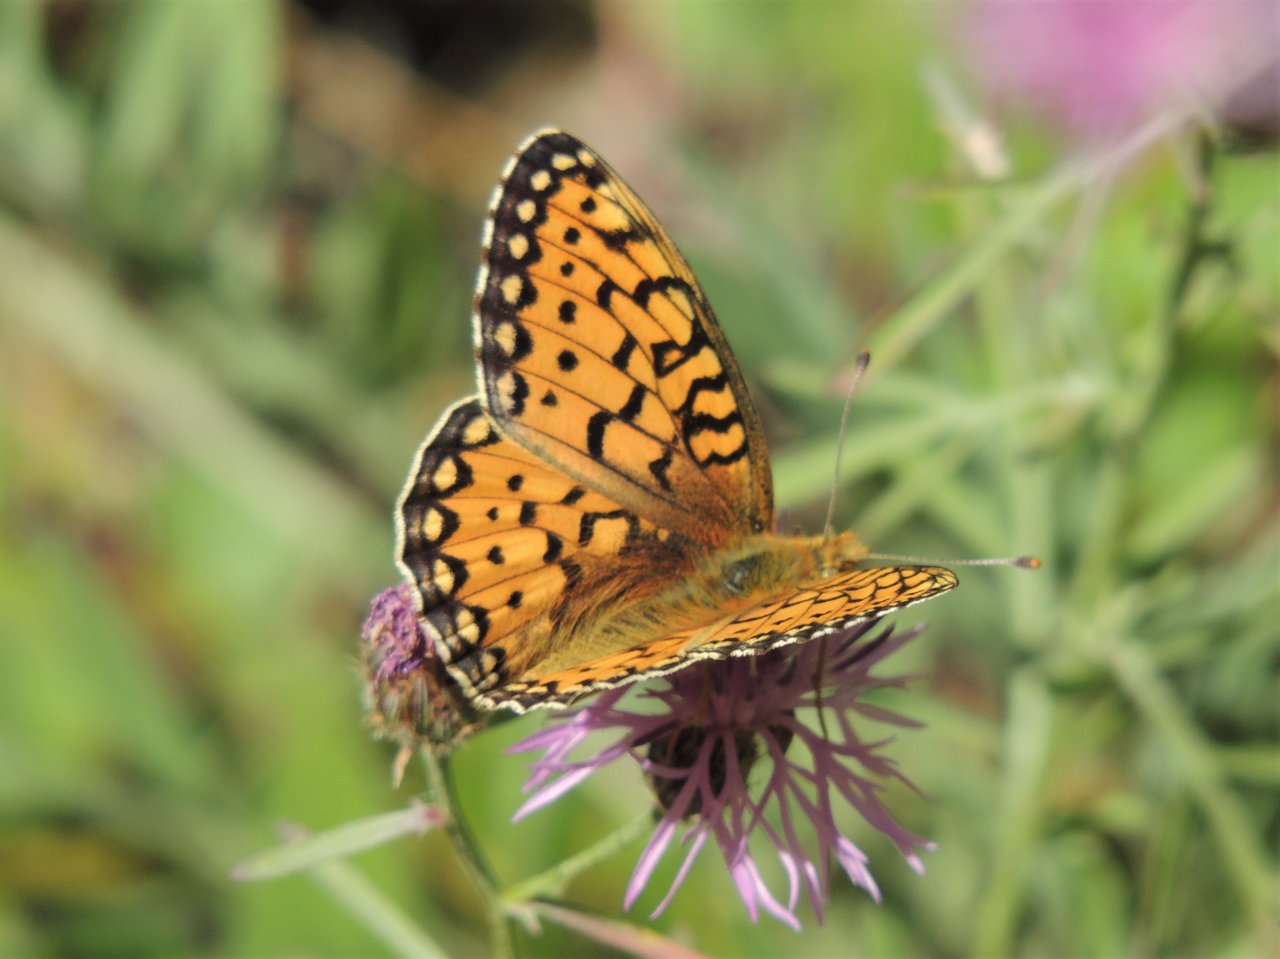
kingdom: Animalia
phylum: Arthropoda
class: Insecta
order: Lepidoptera
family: Nymphalidae
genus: Speyeria
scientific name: Speyeria mormonia
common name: Mormon Fritillary
